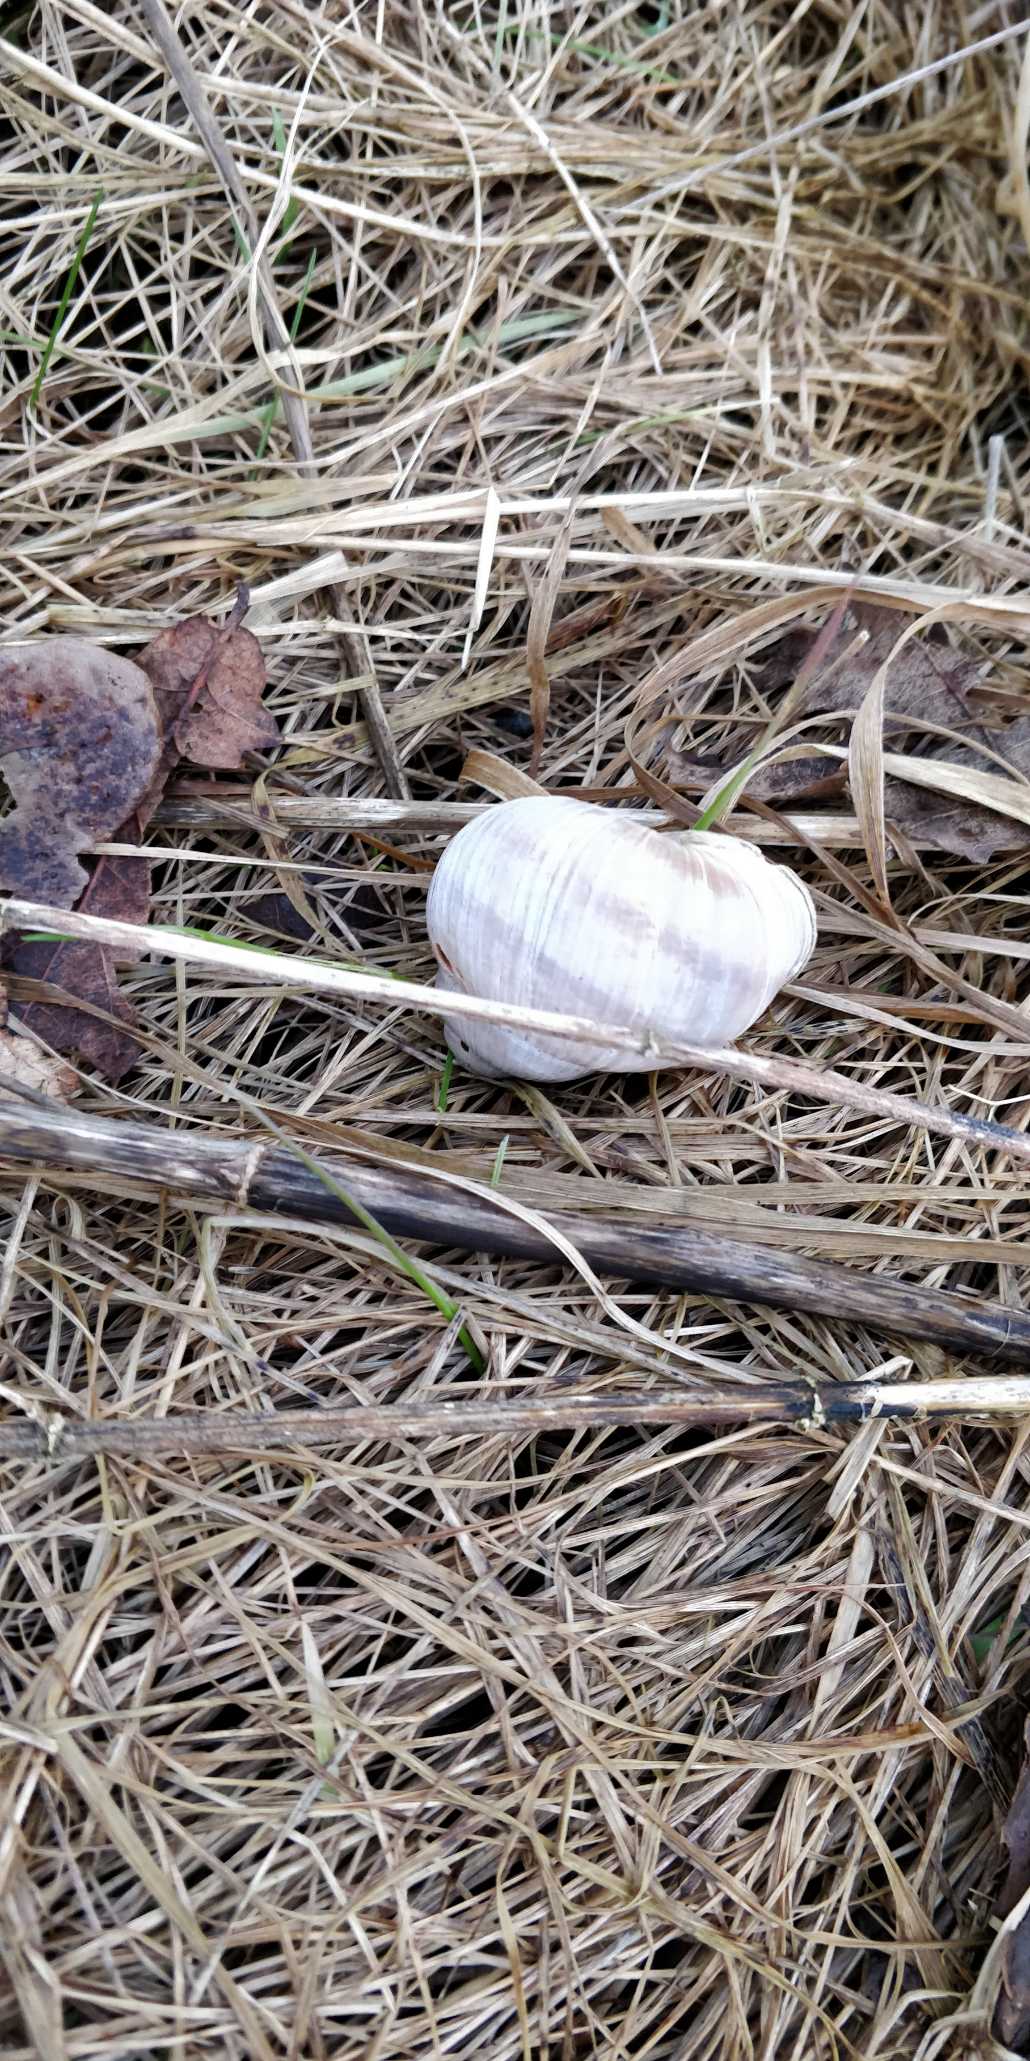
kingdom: Animalia
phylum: Mollusca
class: Gastropoda
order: Stylommatophora
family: Helicidae
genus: Helix
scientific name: Helix pomatia
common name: Vinbjergsnegl
